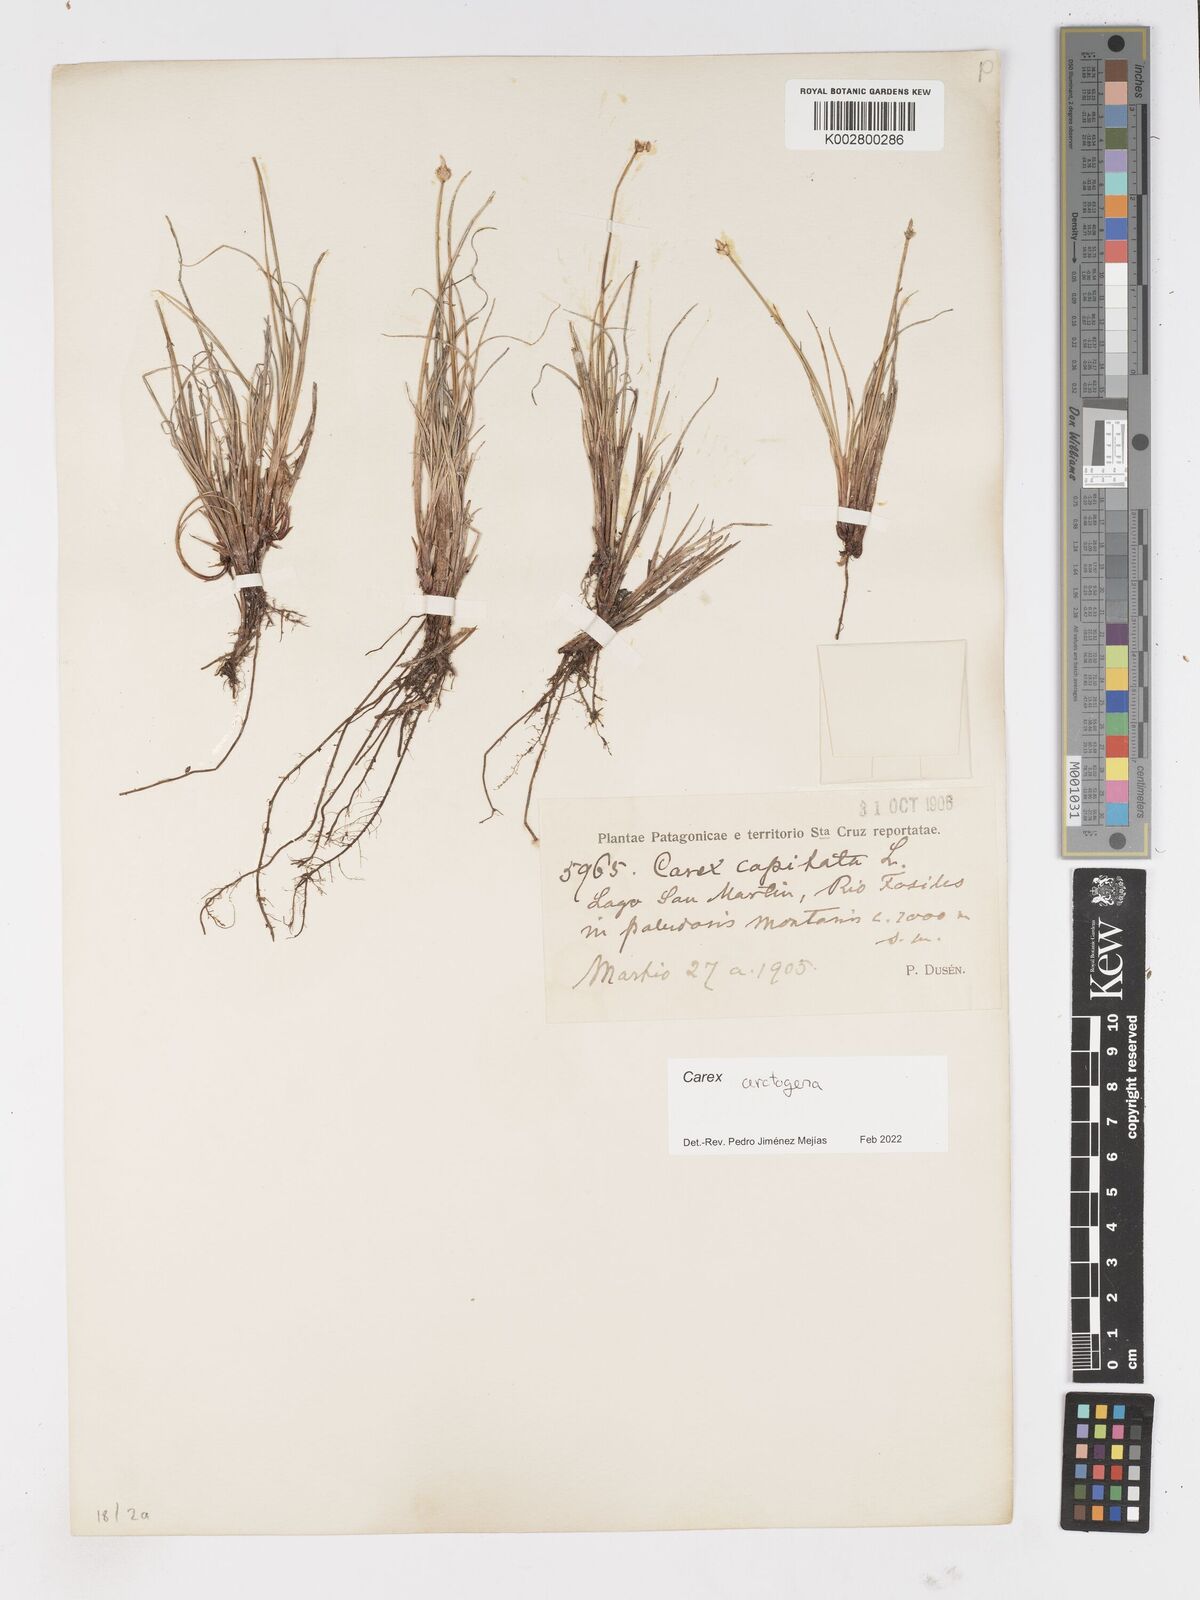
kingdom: Plantae
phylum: Tracheophyta
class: Liliopsida
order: Poales
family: Cyperaceae
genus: Carex
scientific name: Carex arctogena
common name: Black sedge
